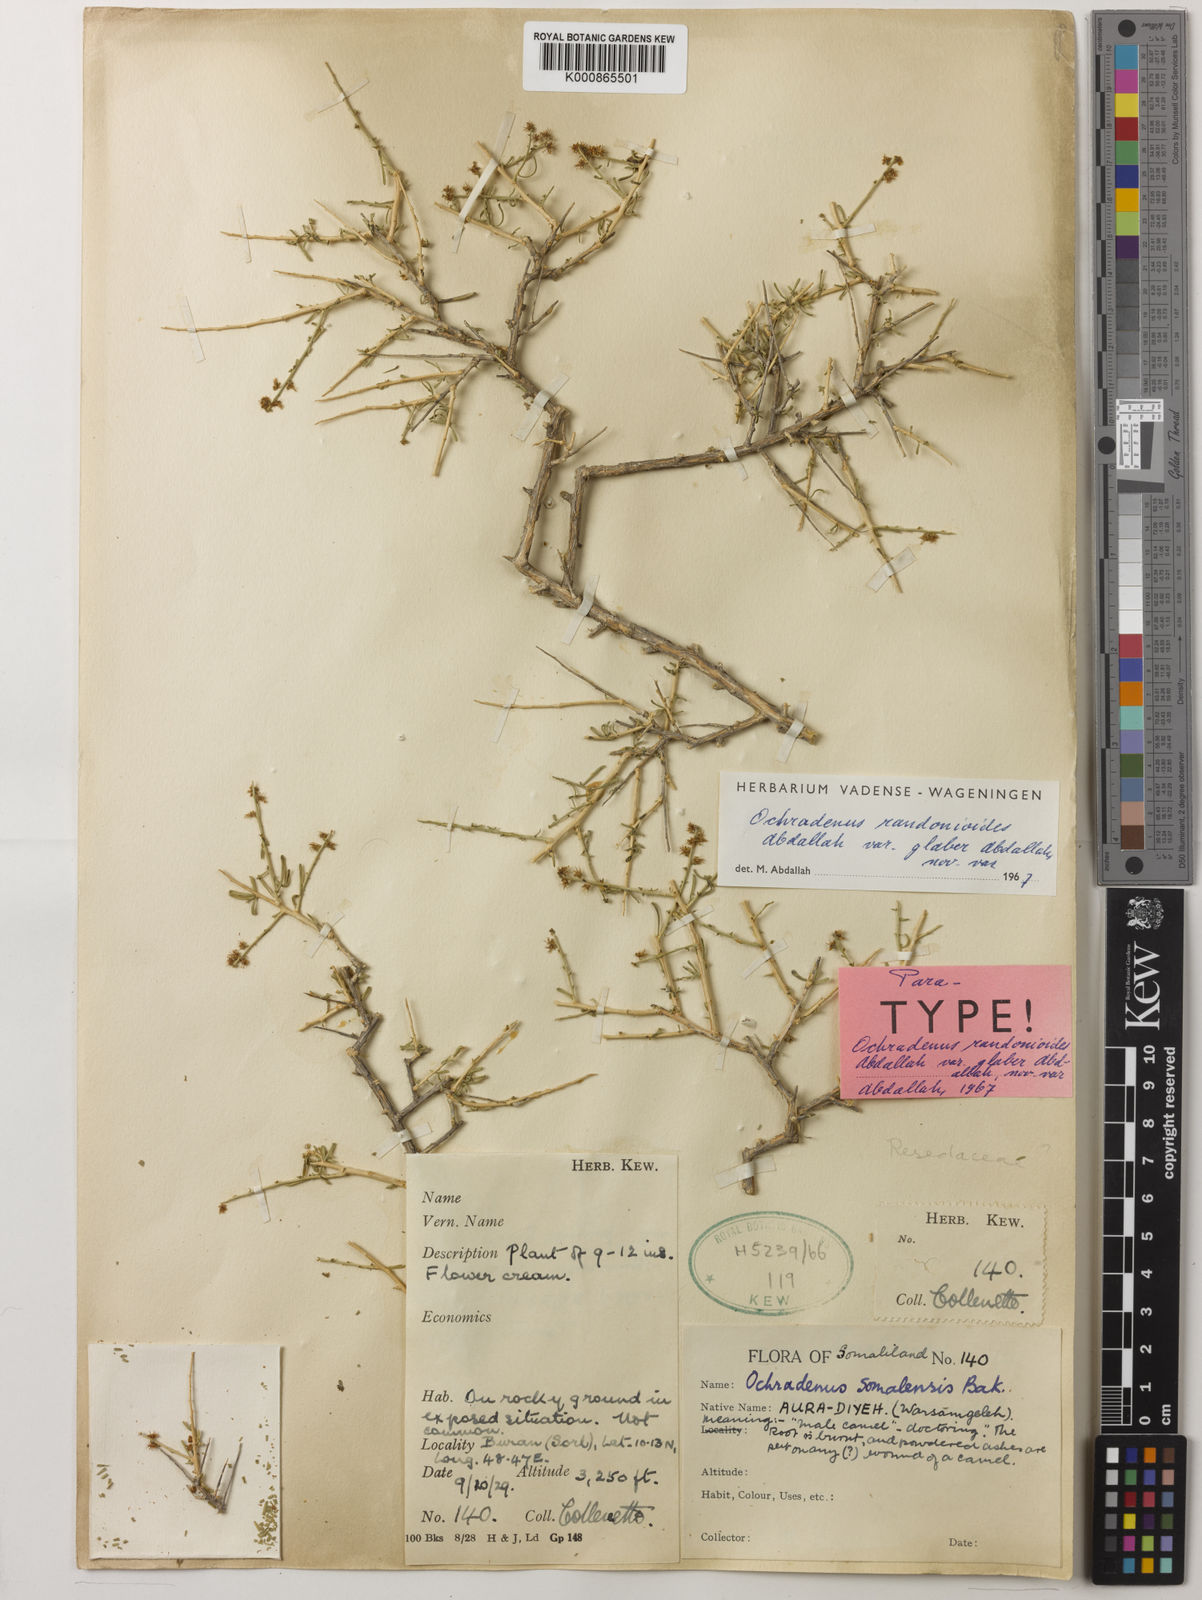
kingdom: Plantae
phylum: Tracheophyta
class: Magnoliopsida
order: Brassicales
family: Resedaceae
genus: Ochradenus
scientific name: Ochradenus somalensis
